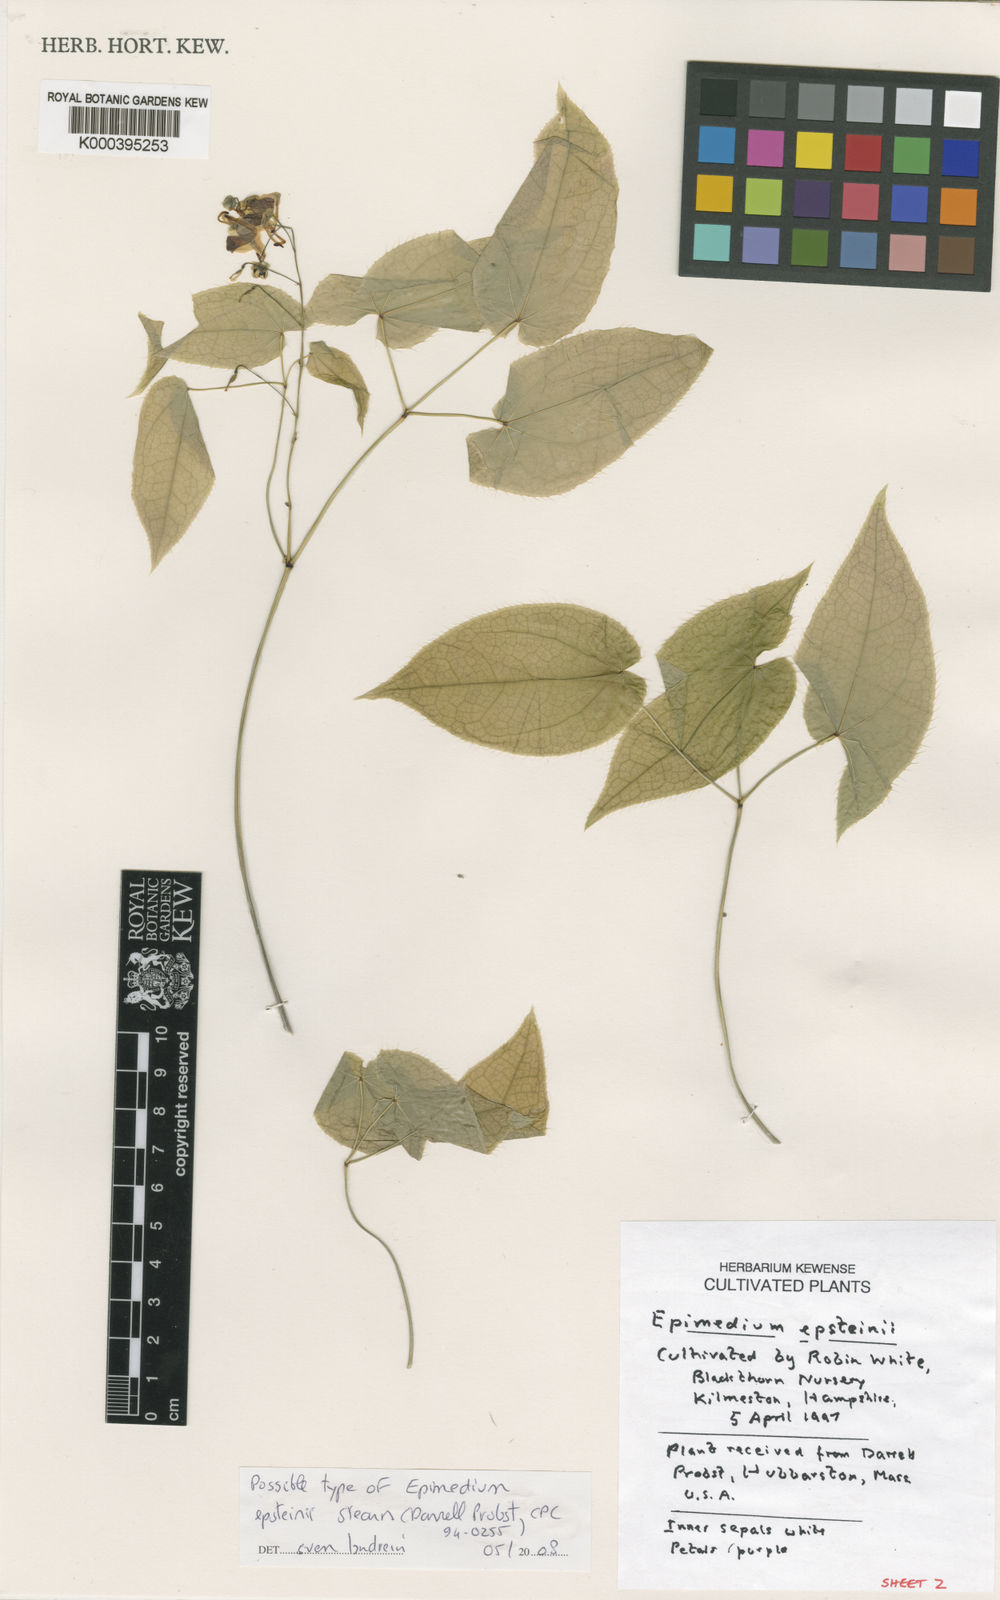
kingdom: Plantae
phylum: Tracheophyta
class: Magnoliopsida
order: Ranunculales
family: Berberidaceae
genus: Epimedium
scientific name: Epimedium epsteinii
